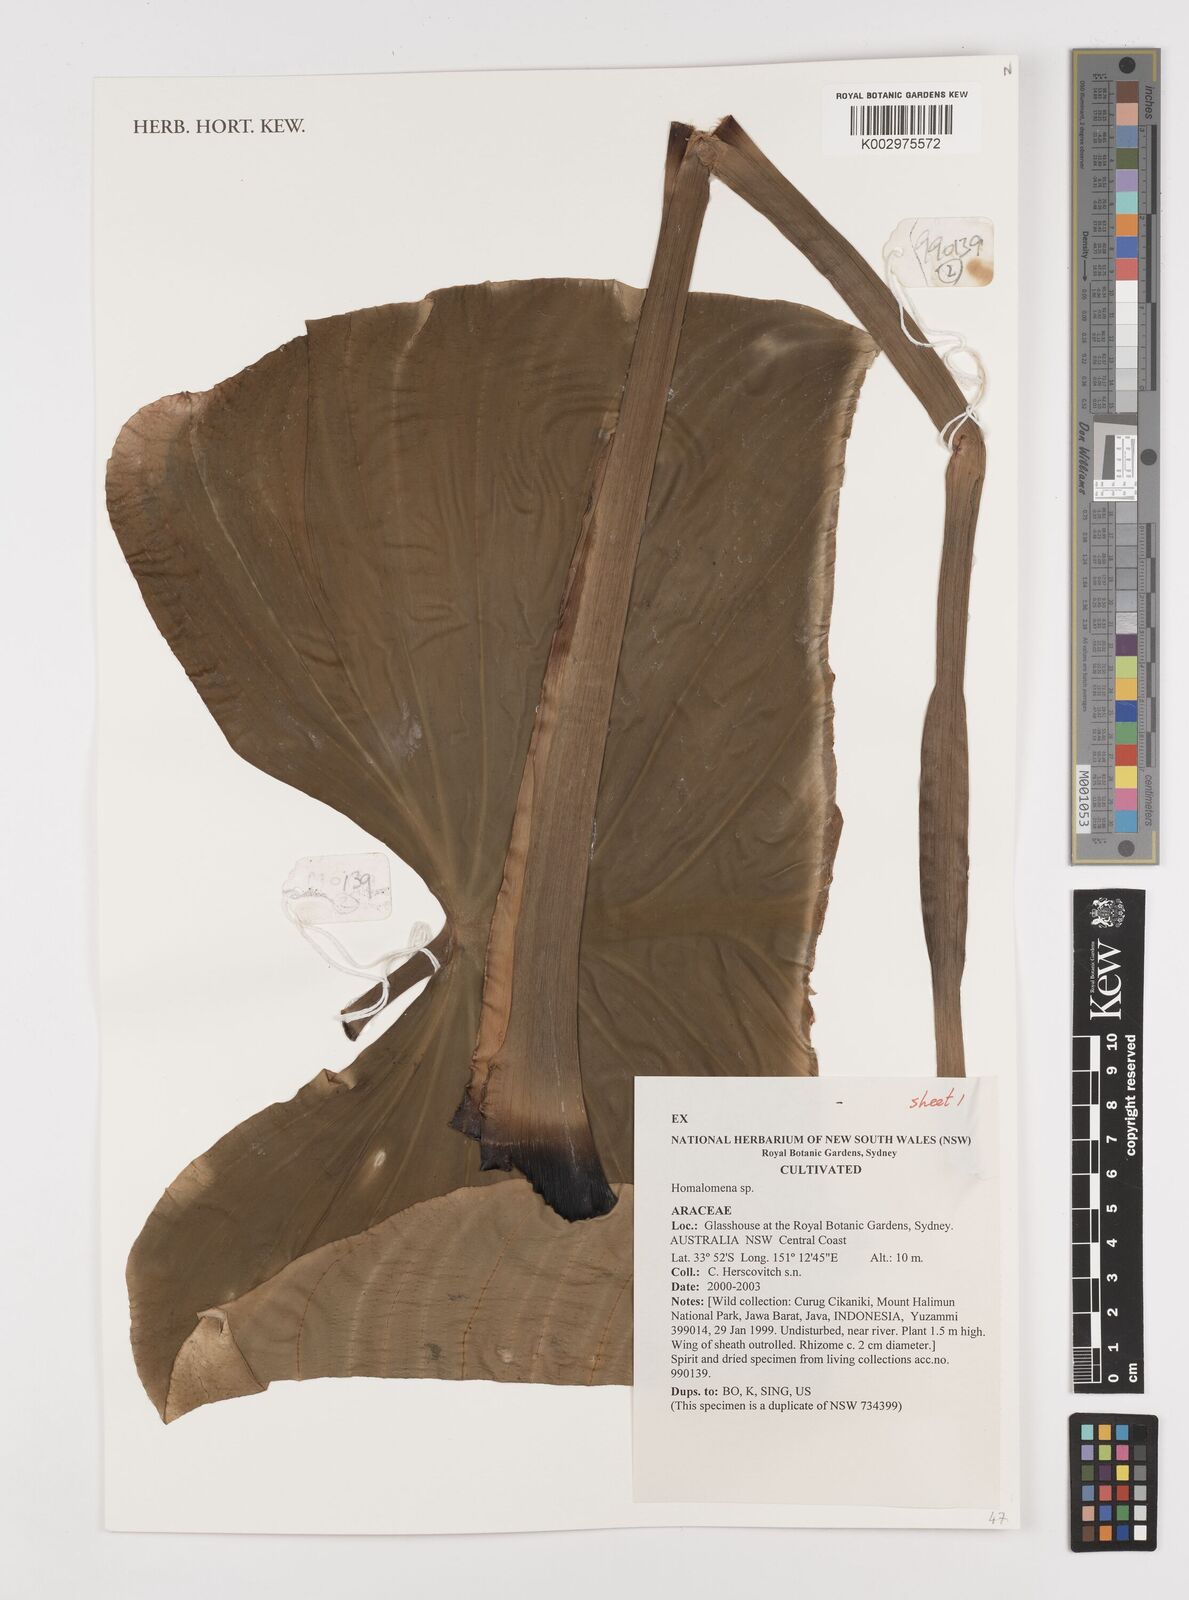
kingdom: Plantae
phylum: Tracheophyta
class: Liliopsida
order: Alismatales
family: Araceae
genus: Homalomena
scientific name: Homalomena
